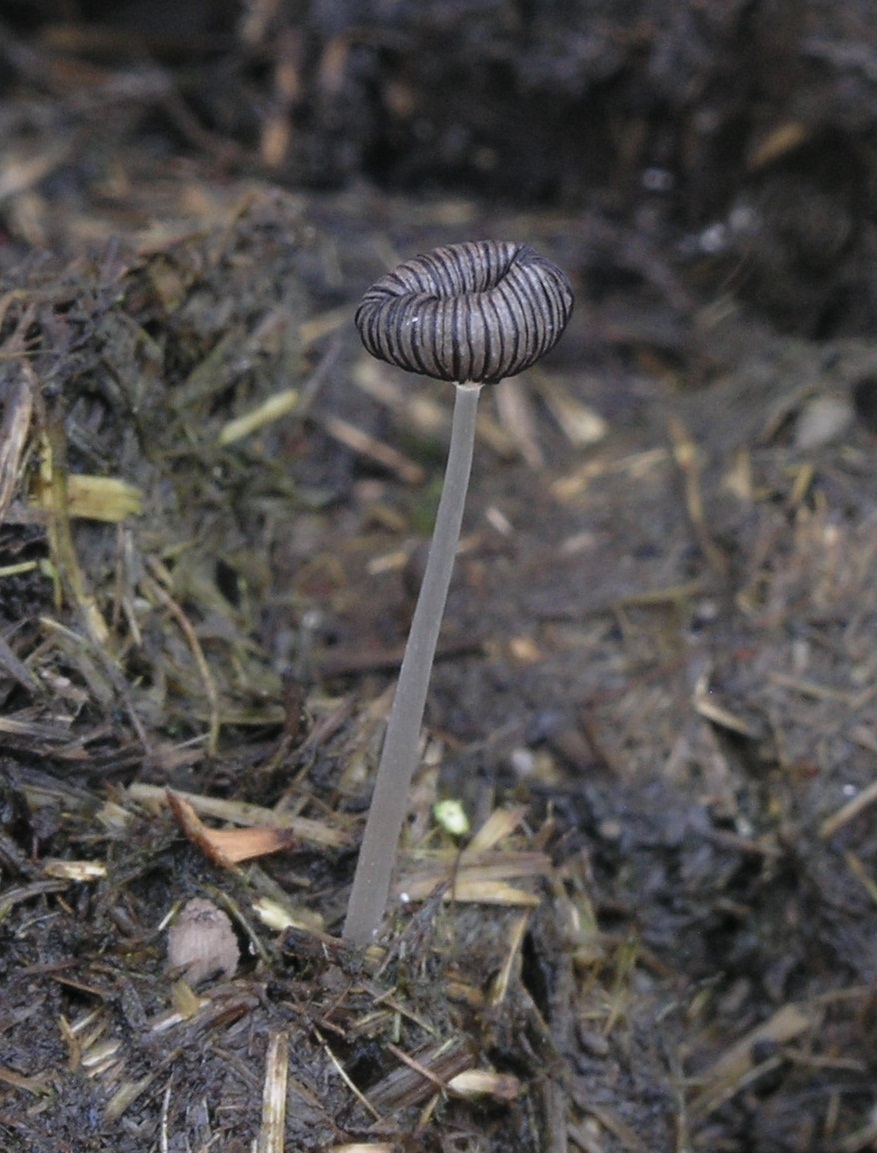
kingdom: Fungi
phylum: Basidiomycota
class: Agaricomycetes
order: Agaricales
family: Psathyrellaceae
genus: Coprinopsis
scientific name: Coprinopsis poliomalla
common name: gråfnugget blækhat
